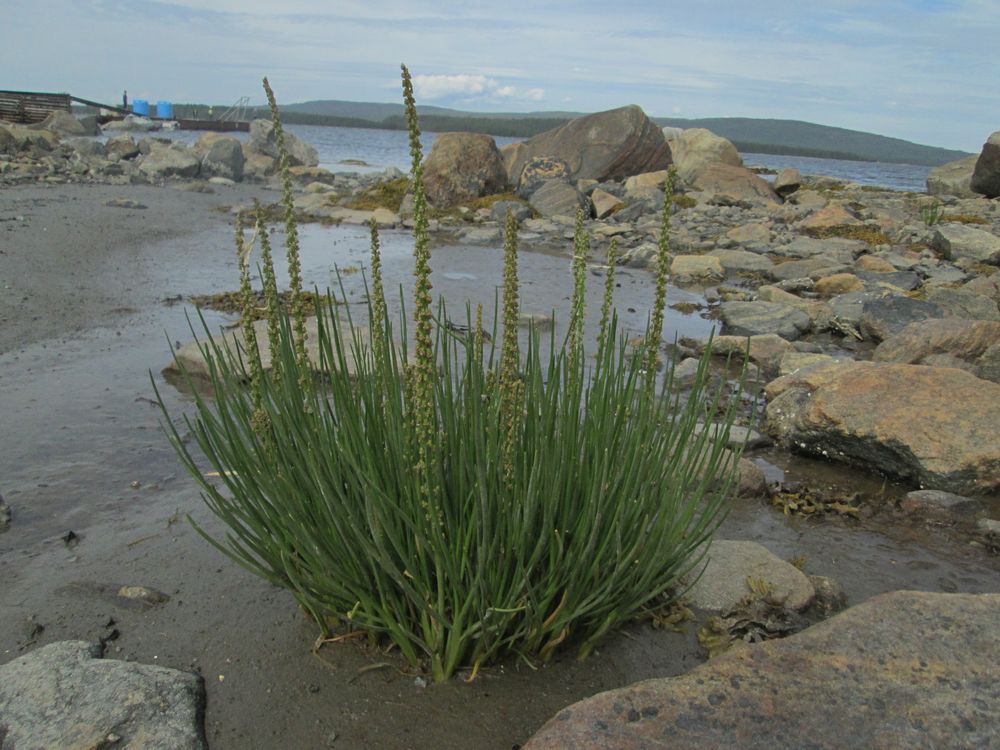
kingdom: Plantae
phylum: Tracheophyta
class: Liliopsida
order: Alismatales
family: Juncaginaceae
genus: Triglochin
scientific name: Triglochin maritima
